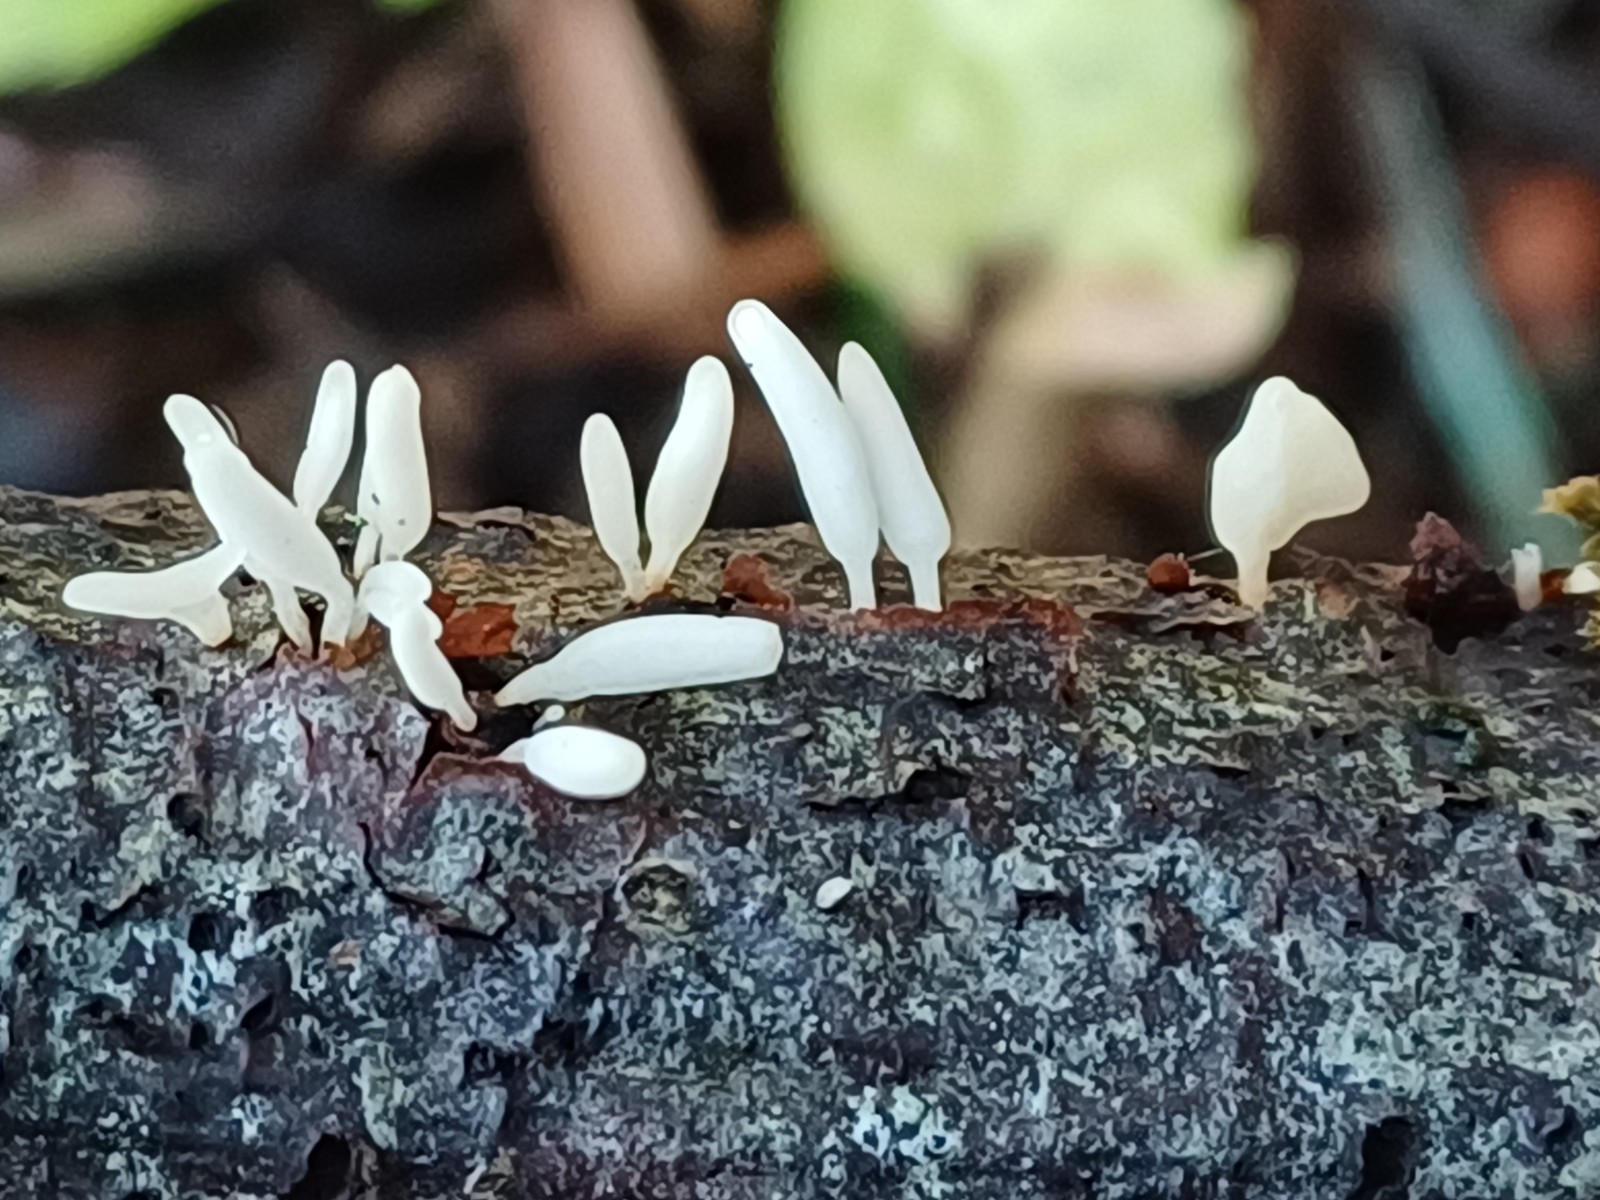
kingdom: Fungi
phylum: Basidiomycota
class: Agaricomycetes
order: Agaricales
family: Typhulaceae
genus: Typhula
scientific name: Typhula spathulata
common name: aske-trådkølle
